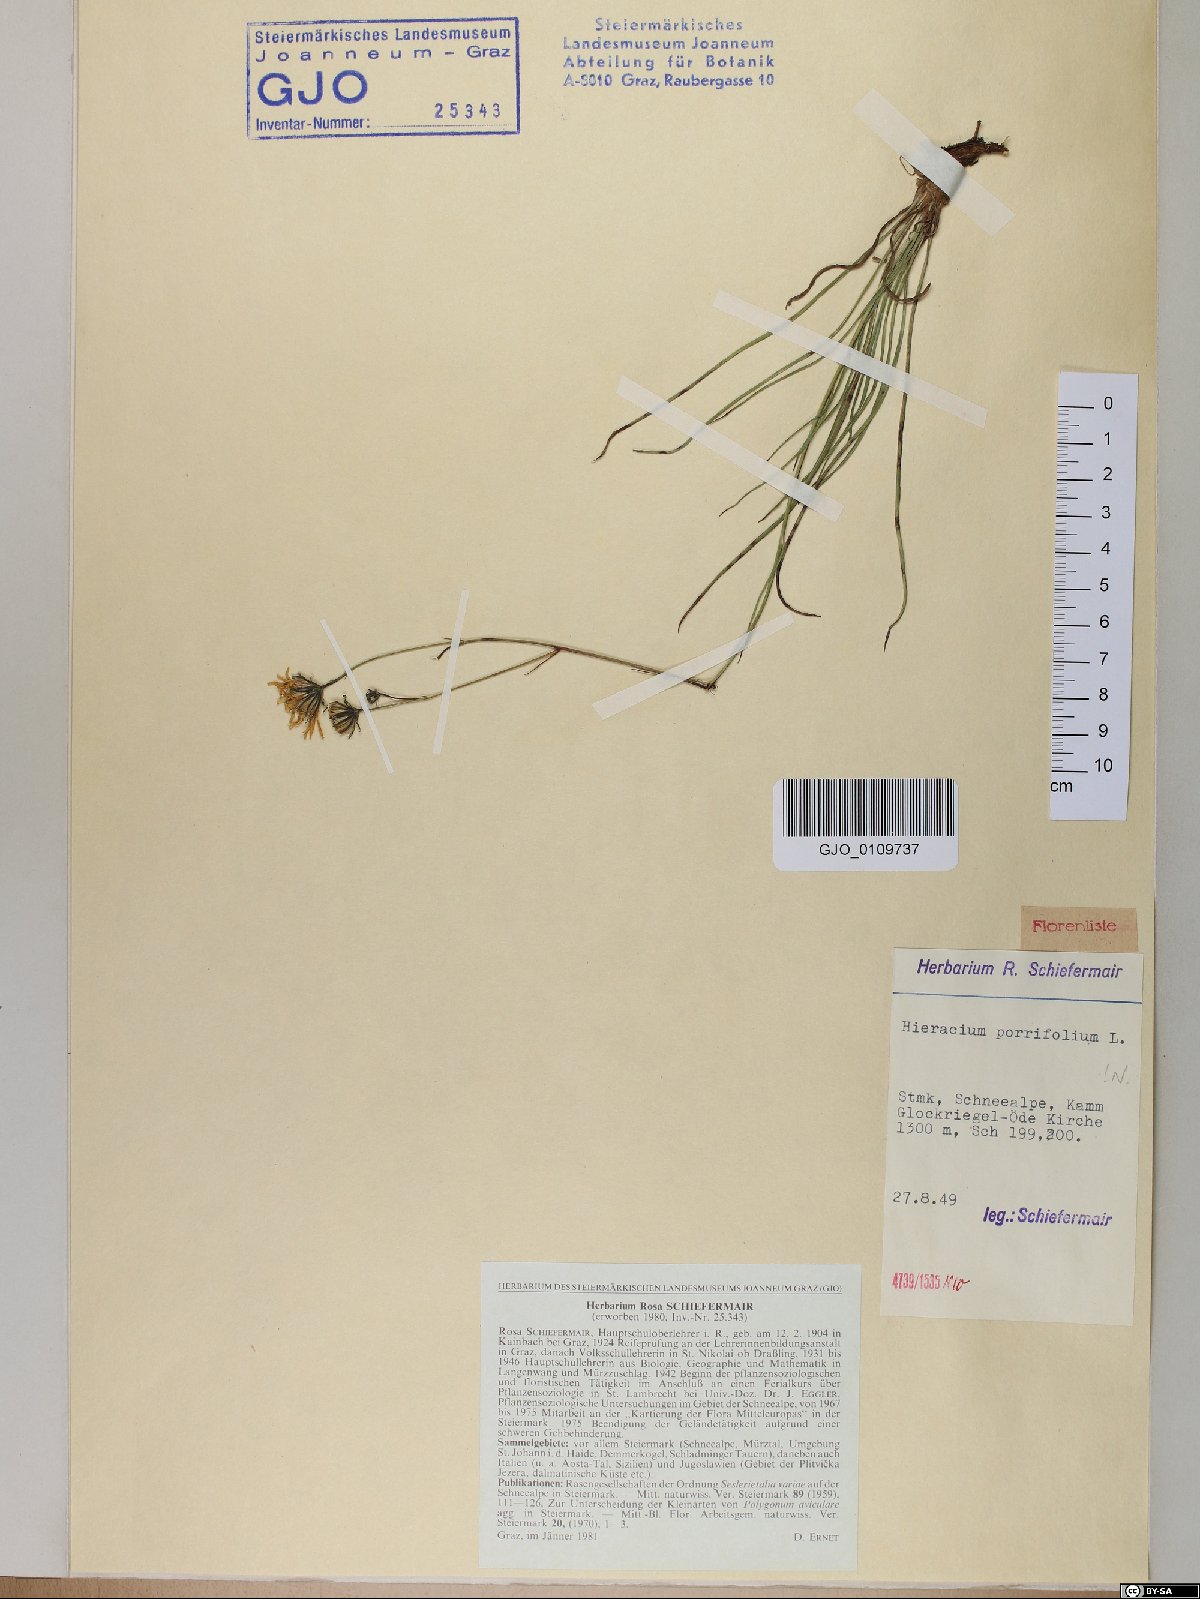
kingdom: Plantae
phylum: Tracheophyta
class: Magnoliopsida
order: Asterales
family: Asteraceae
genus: Hieracium
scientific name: Hieracium porrifolium
